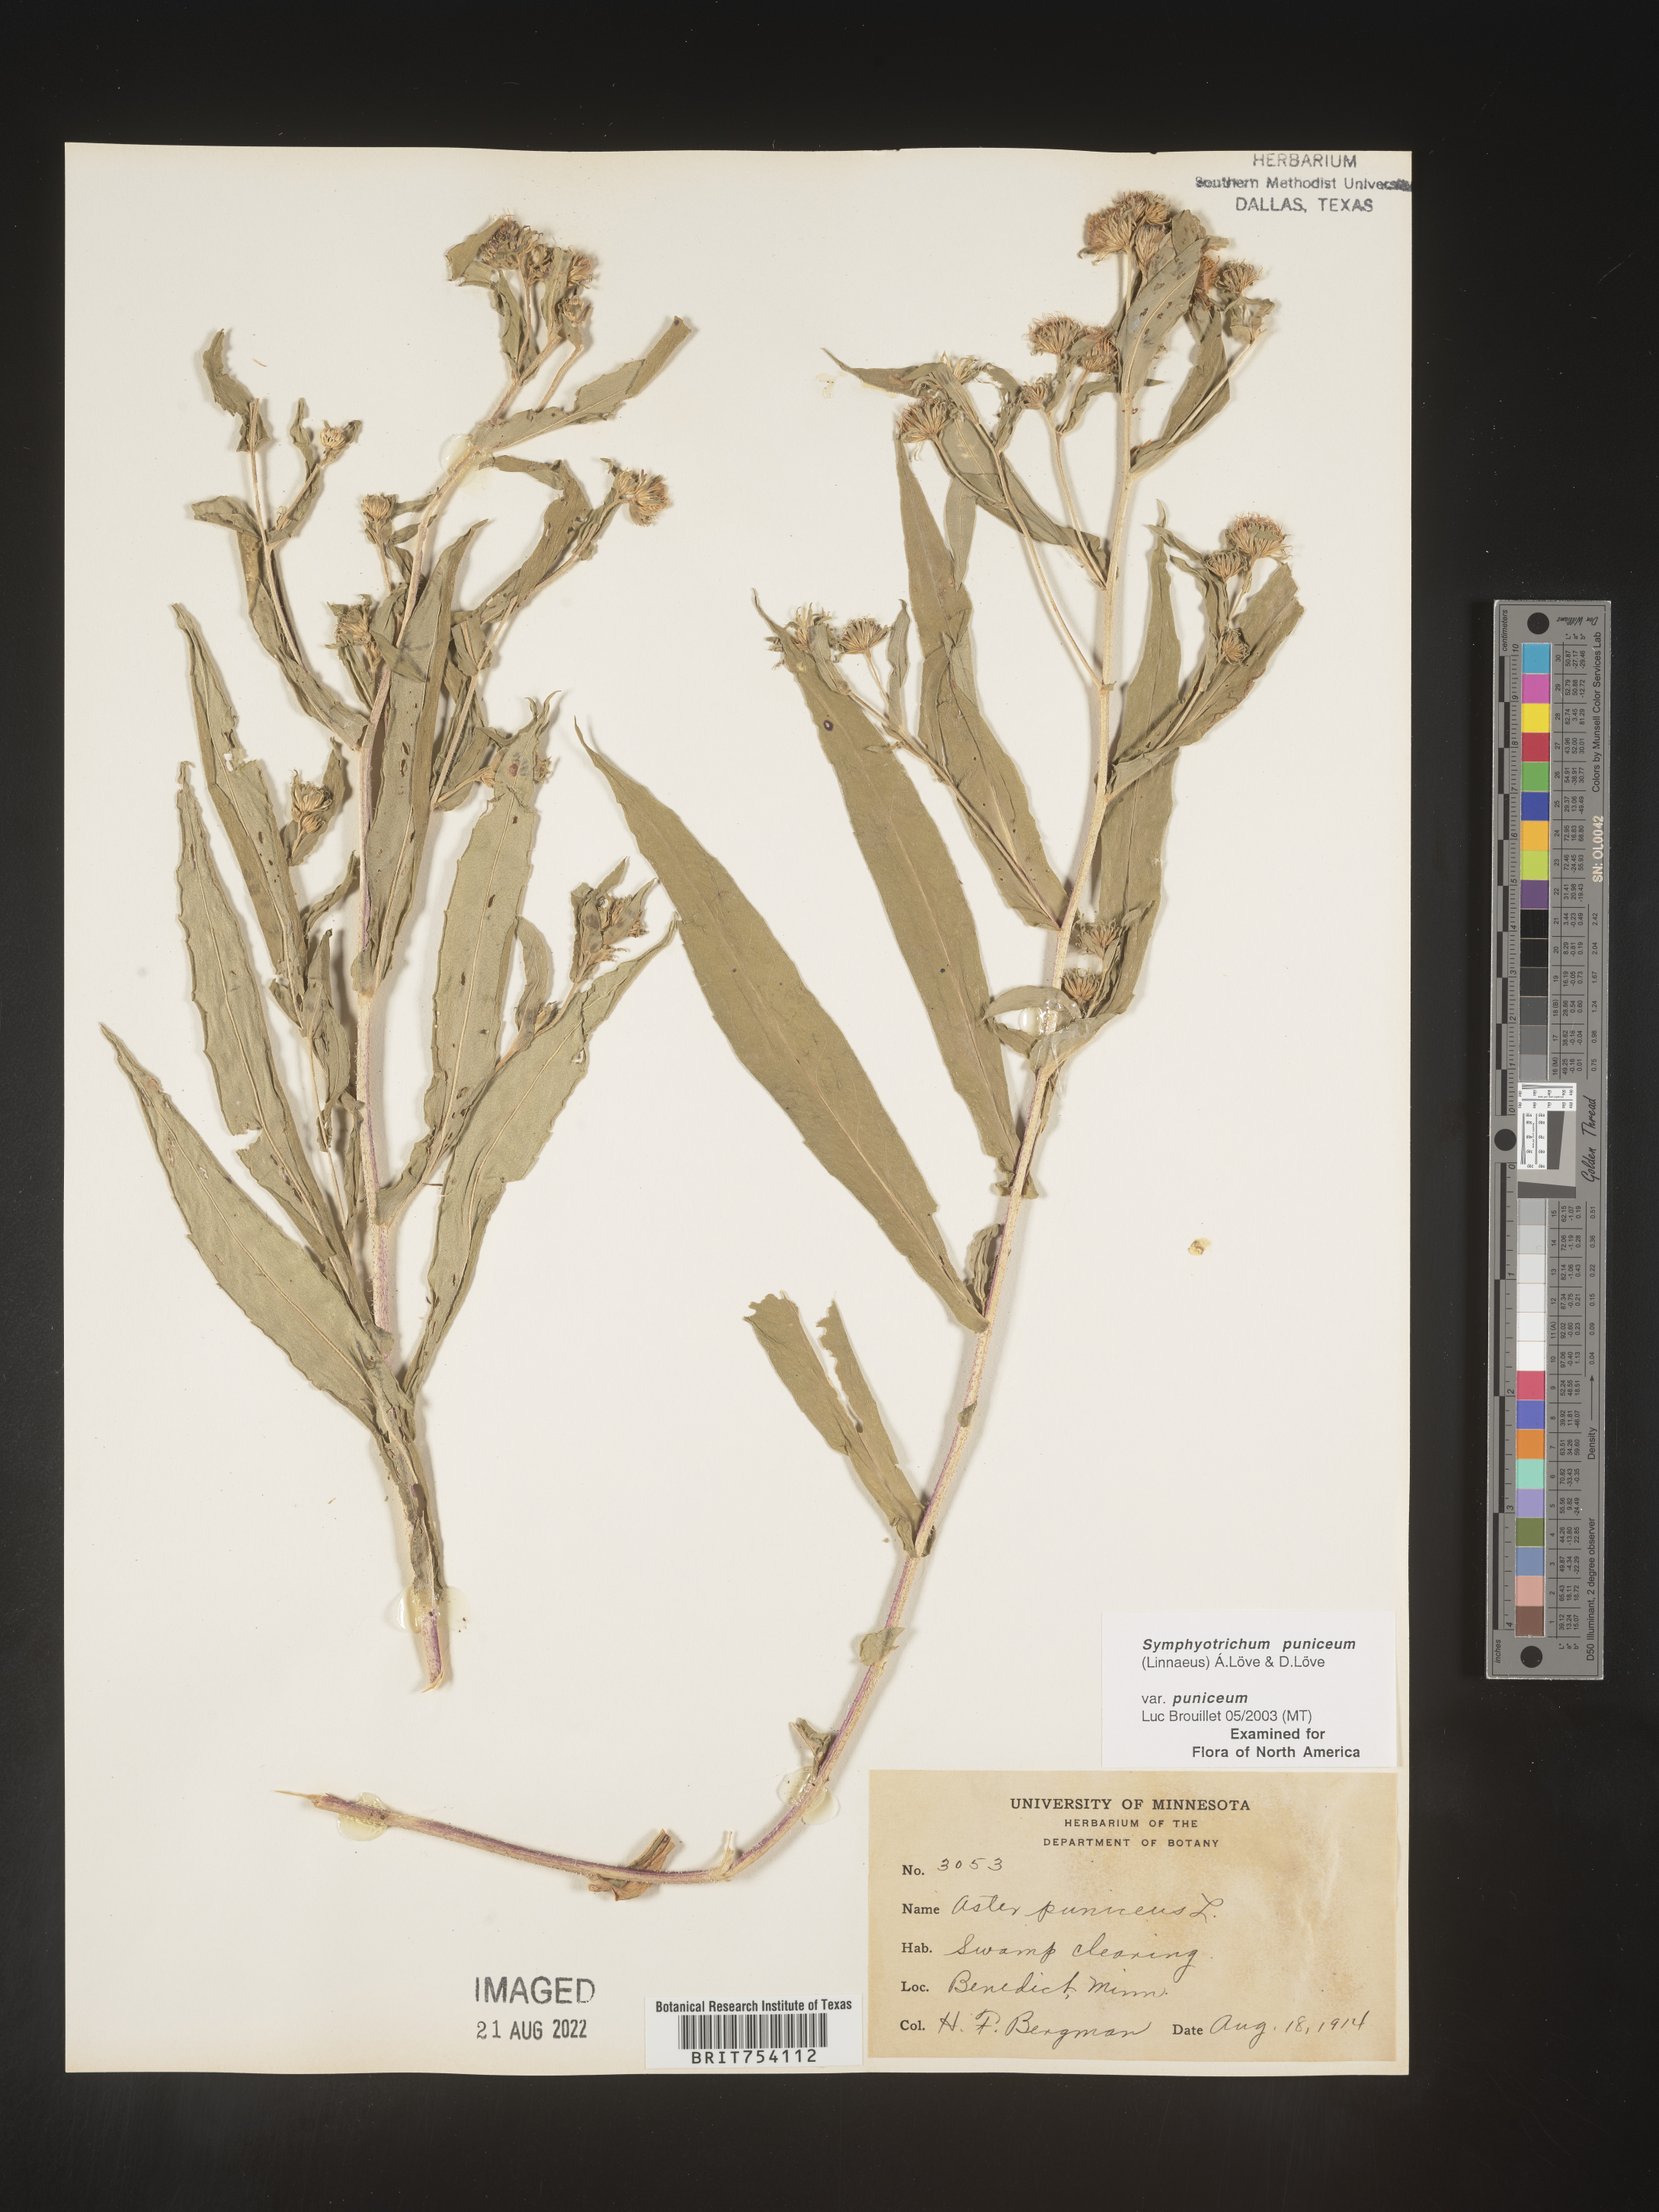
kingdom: Plantae
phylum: Tracheophyta
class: Magnoliopsida
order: Asterales
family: Asteraceae
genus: Symphyotrichum
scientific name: Symphyotrichum puniceum
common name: Bog aster
